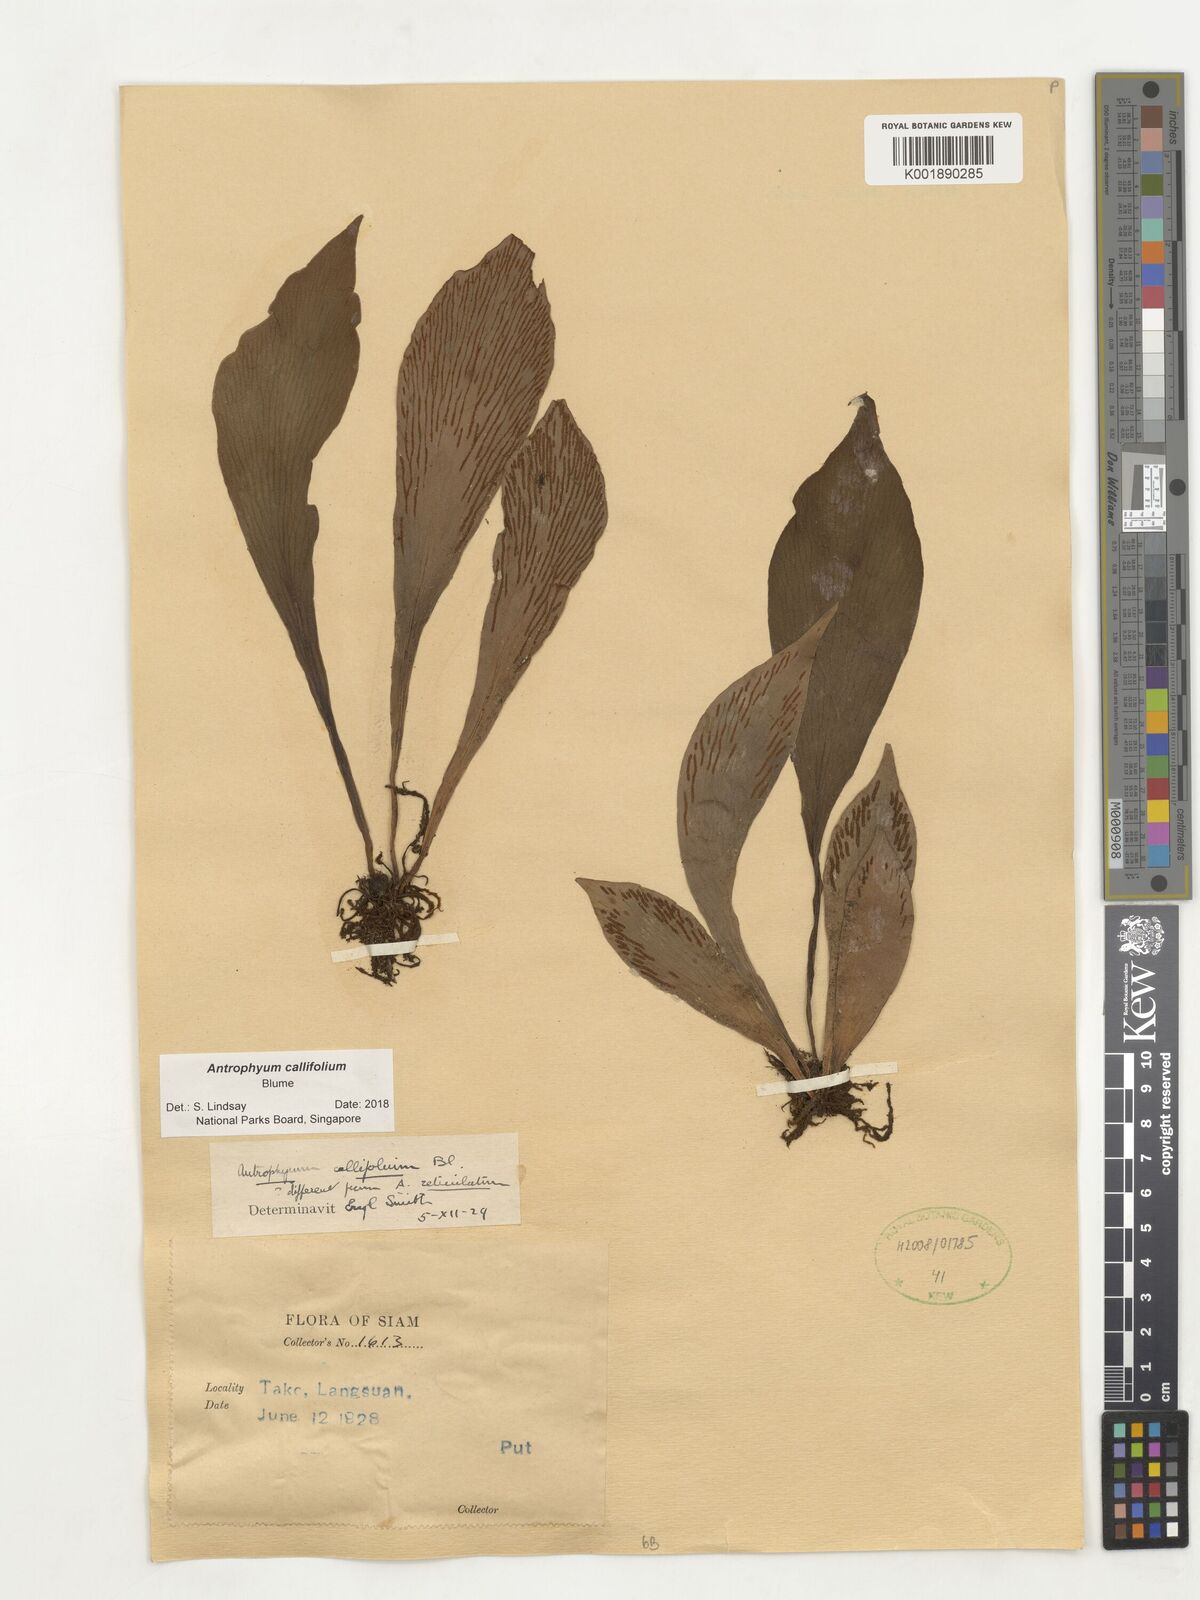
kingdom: Plantae
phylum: Tracheophyta
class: Polypodiopsida
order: Polypodiales
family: Pteridaceae
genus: Antrophyum
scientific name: Antrophyum callifolium
